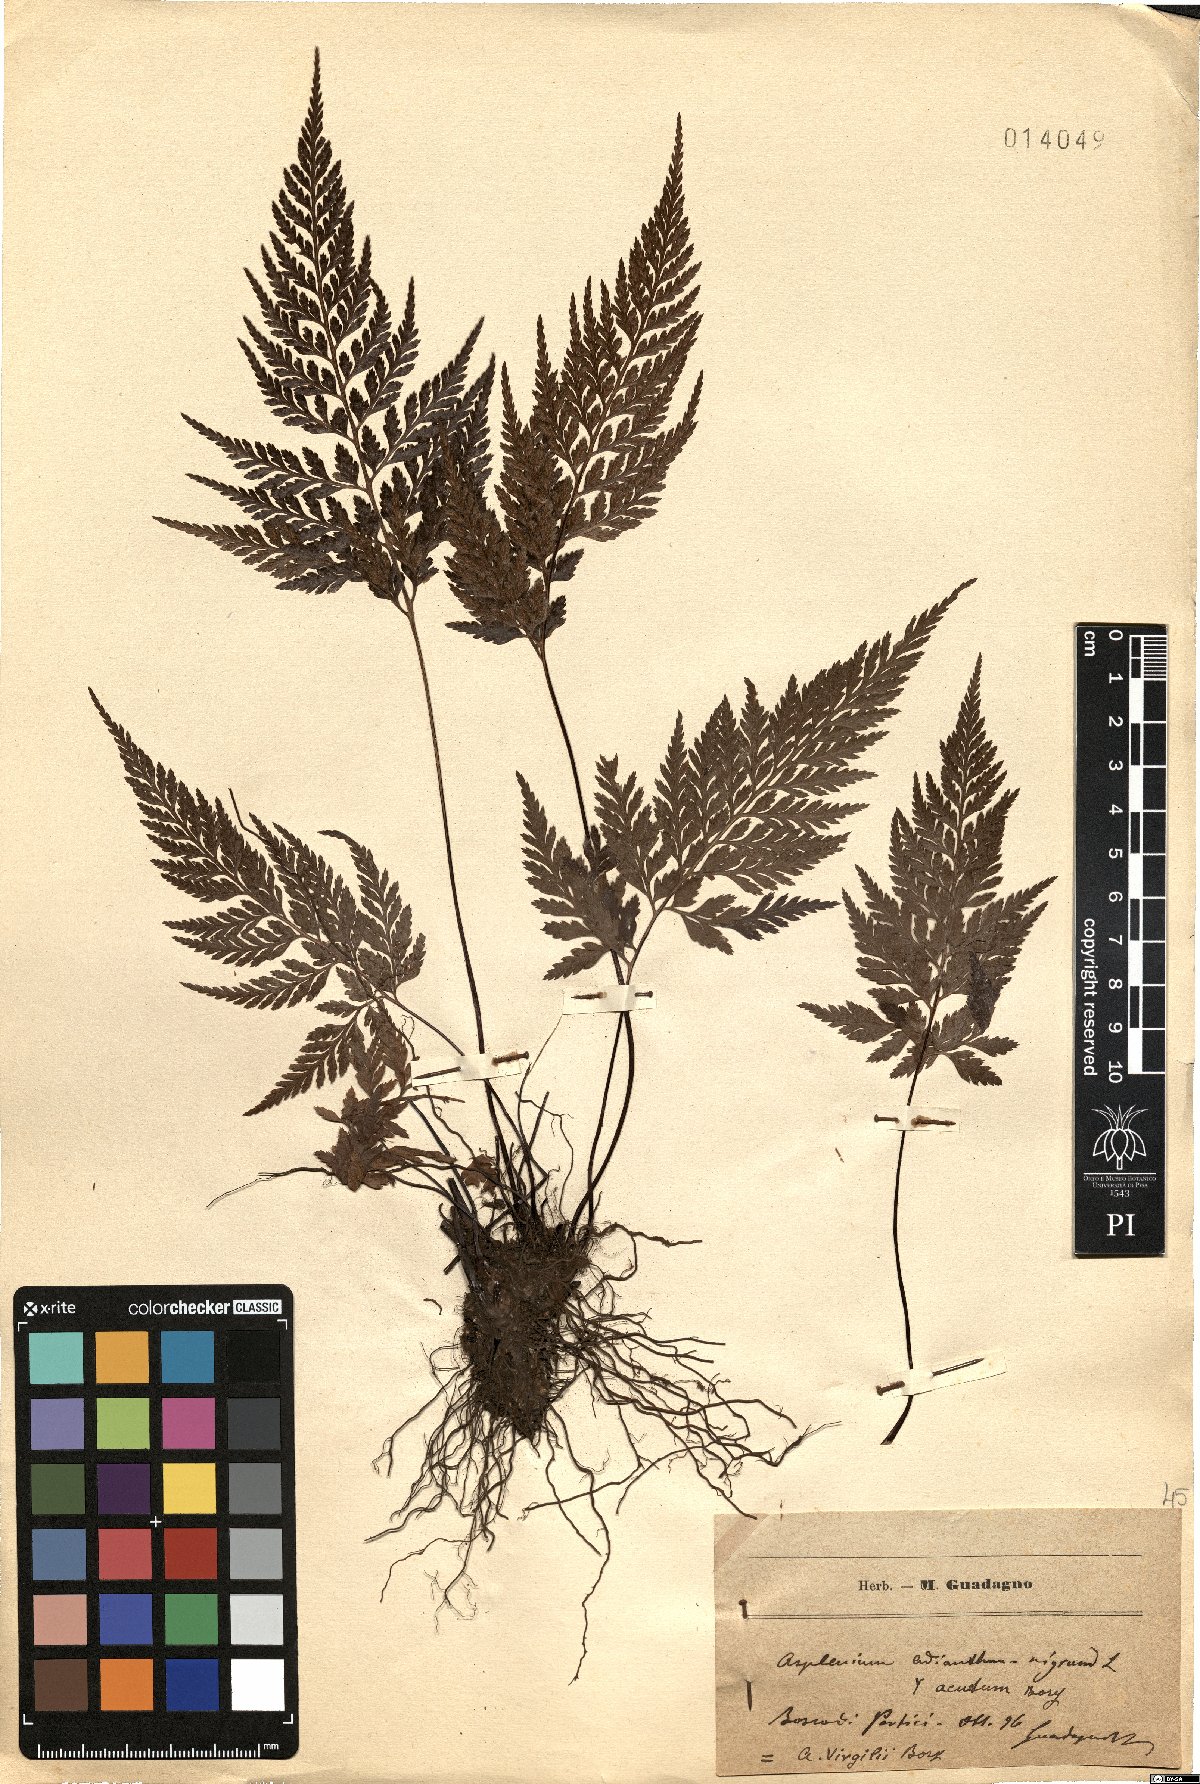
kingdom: Plantae
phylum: Tracheophyta
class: Polypodiopsida
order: Polypodiales
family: Aspleniaceae
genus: Asplenium
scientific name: Asplenium onopteris
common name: Irish spleenwort
